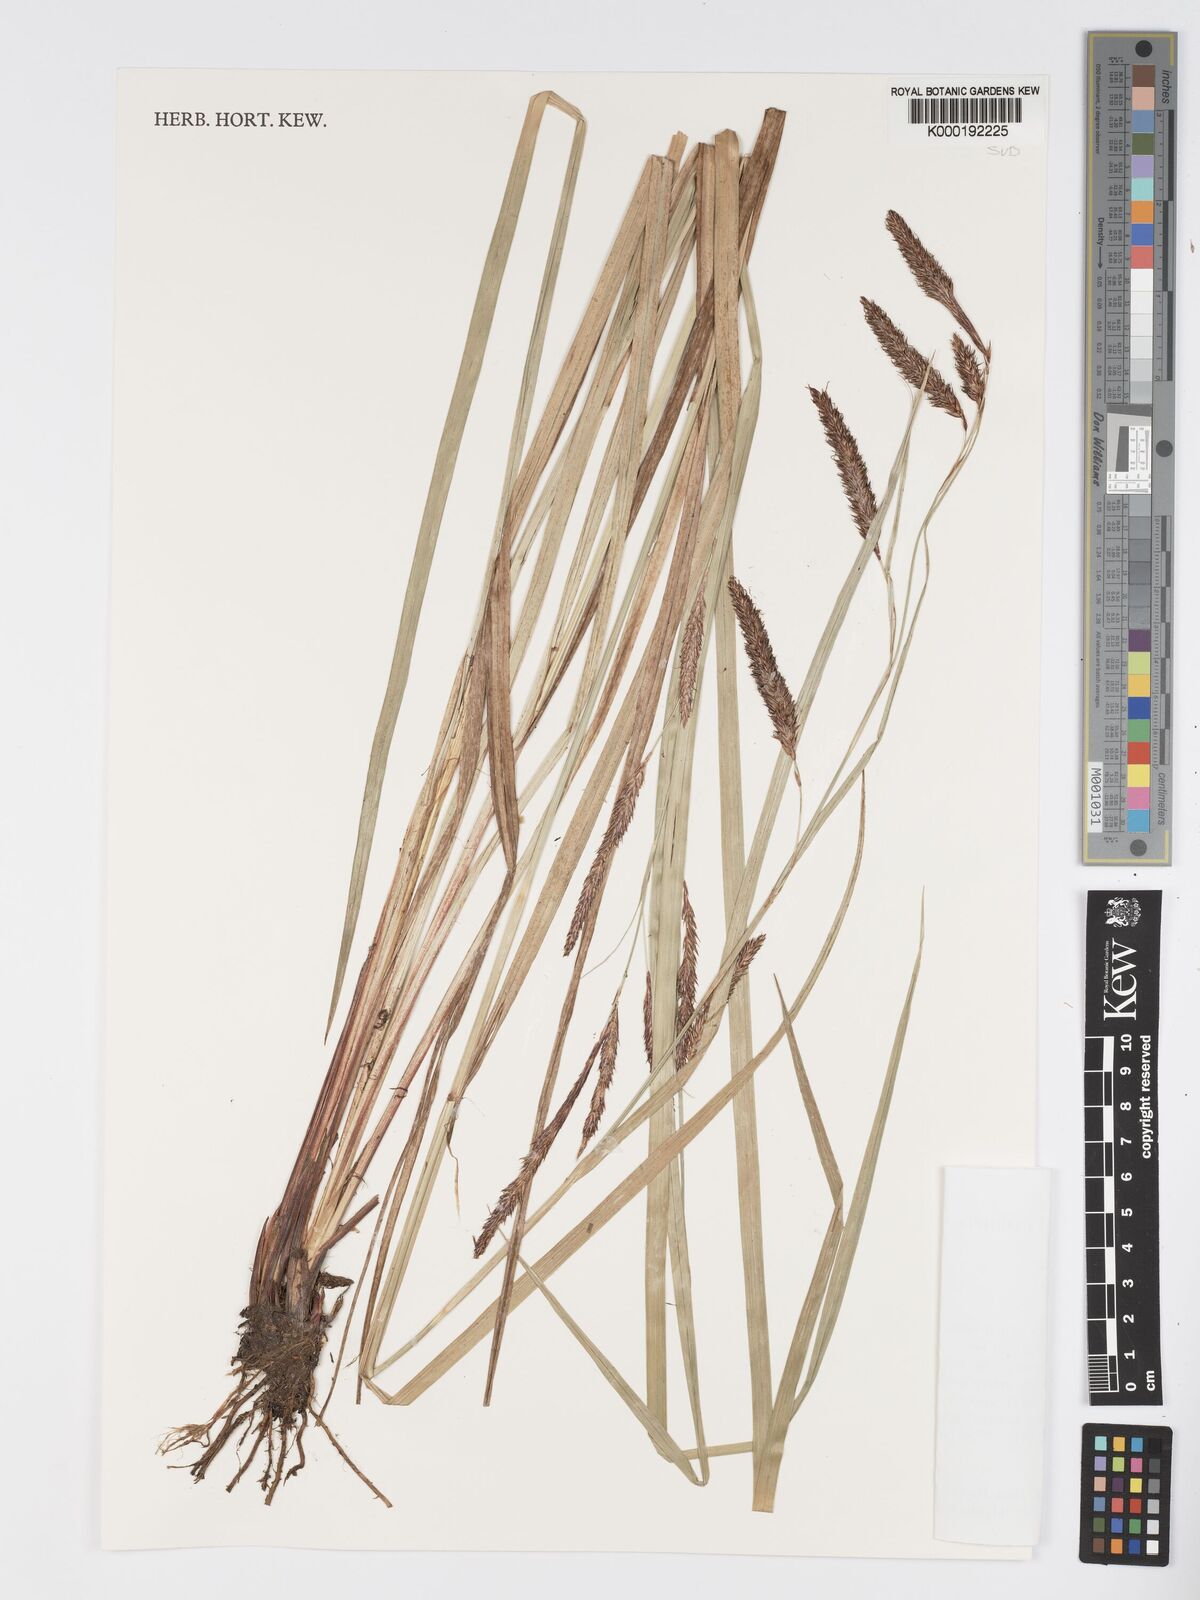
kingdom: Plantae
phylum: Tracheophyta
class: Liliopsida
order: Poales
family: Cyperaceae
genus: Carex
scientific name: Carex mannii
